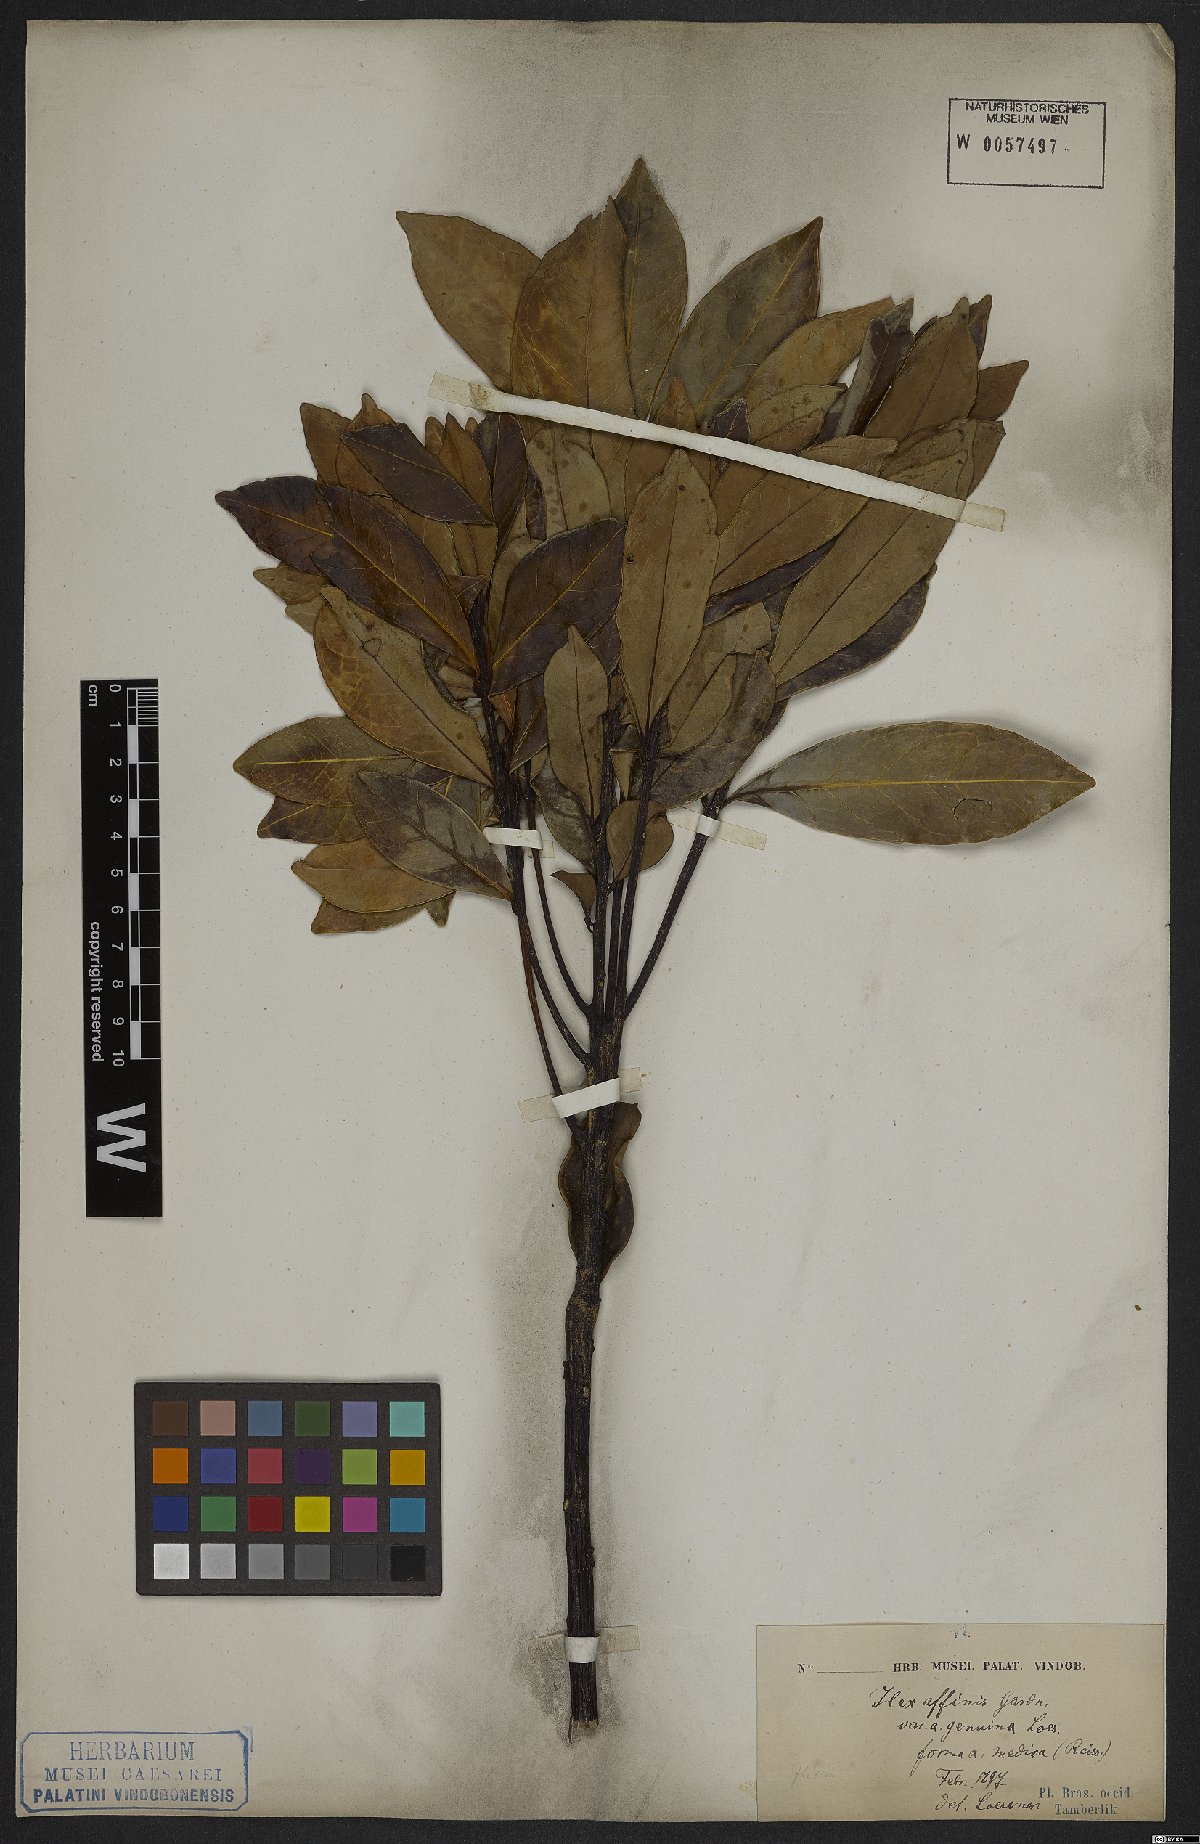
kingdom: Plantae
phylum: Tracheophyta
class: Magnoliopsida
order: Aquifoliales
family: Aquifoliaceae
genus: Ilex
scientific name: Ilex affinis
